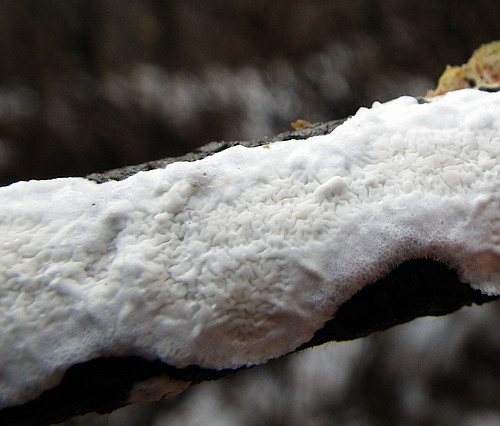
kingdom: Fungi
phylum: Basidiomycota
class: Agaricomycetes
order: Polyporales
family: Irpicaceae
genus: Byssomerulius
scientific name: Byssomerulius corium
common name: læder-åresvamp
